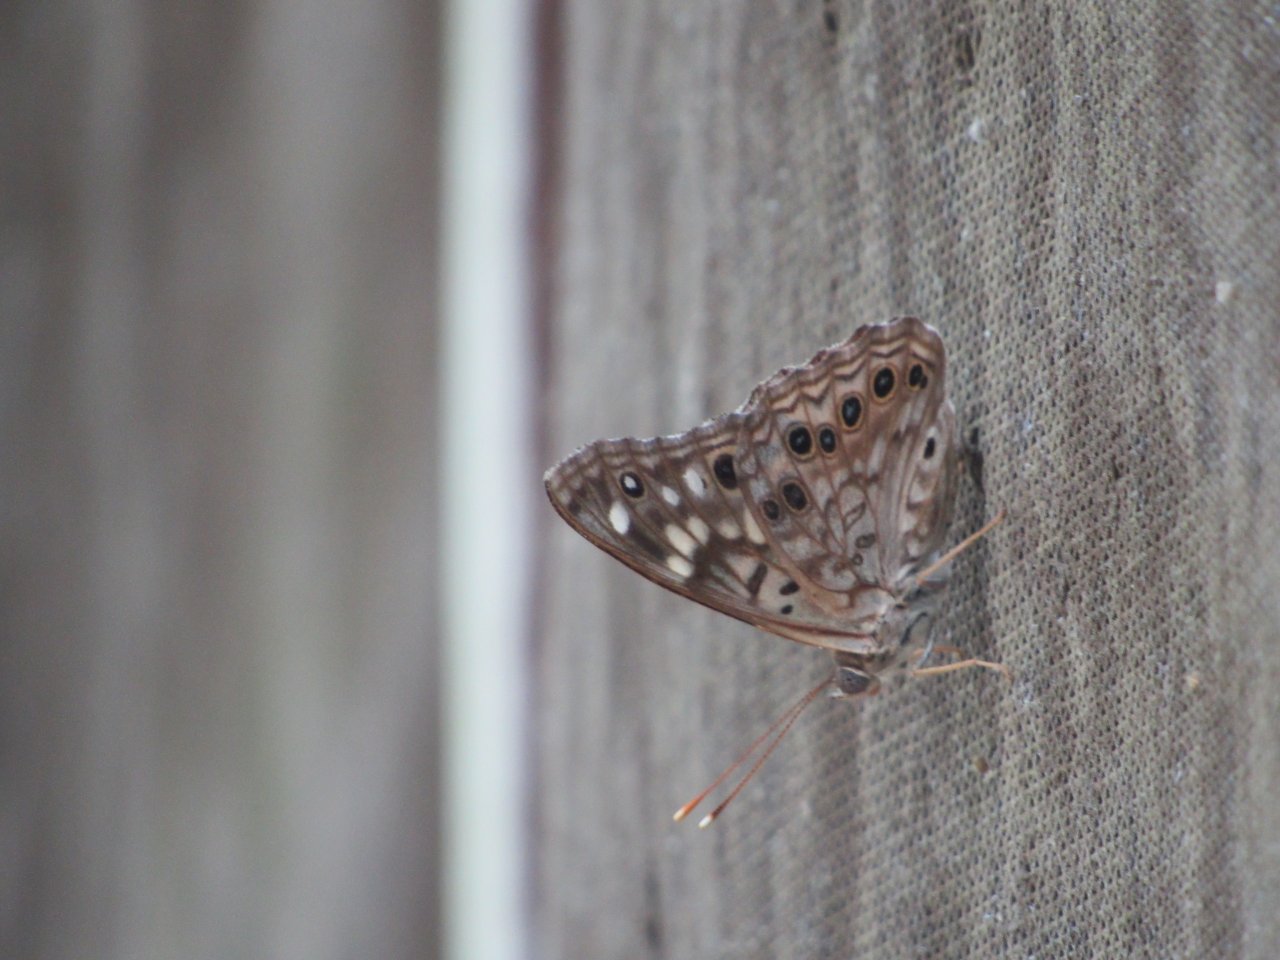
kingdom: Animalia
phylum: Arthropoda
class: Insecta
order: Lepidoptera
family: Nymphalidae
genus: Asterocampa
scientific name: Asterocampa celtis
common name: Hackberry Emperor
